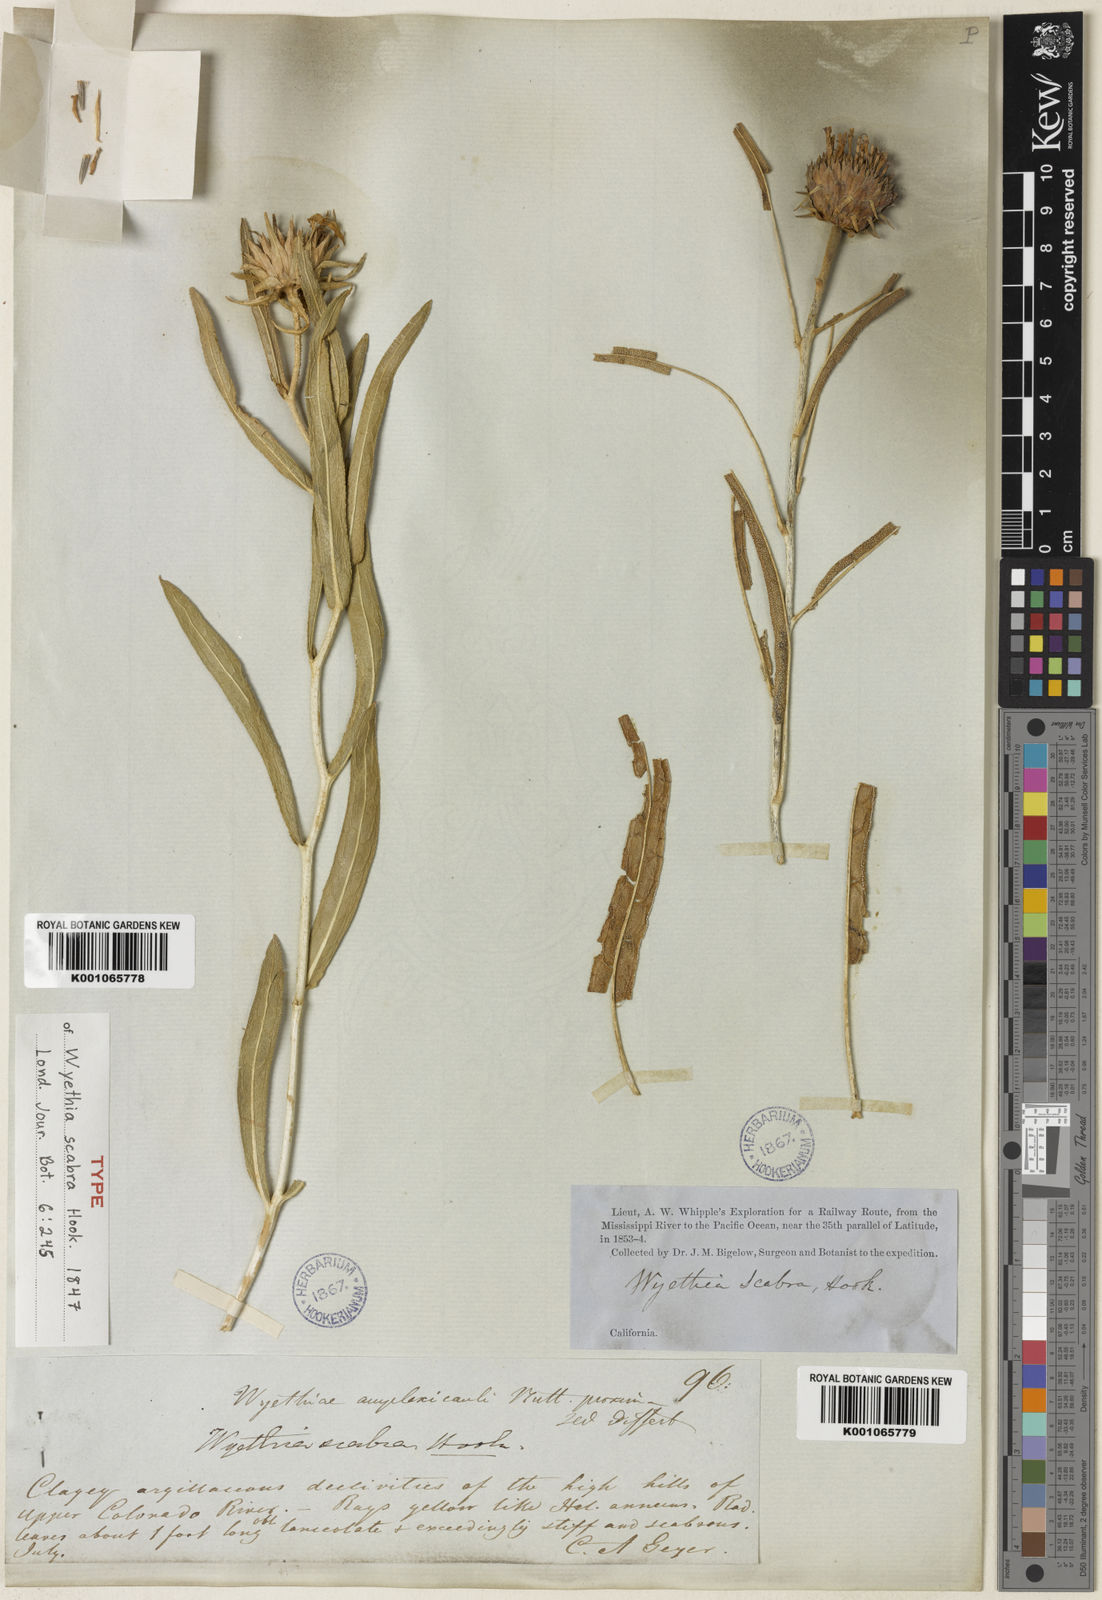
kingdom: Plantae
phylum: Tracheophyta
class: Magnoliopsida
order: Asterales
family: Asteraceae
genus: Scabrethia
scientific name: Scabrethia scabra
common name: Rough mules's-ears
